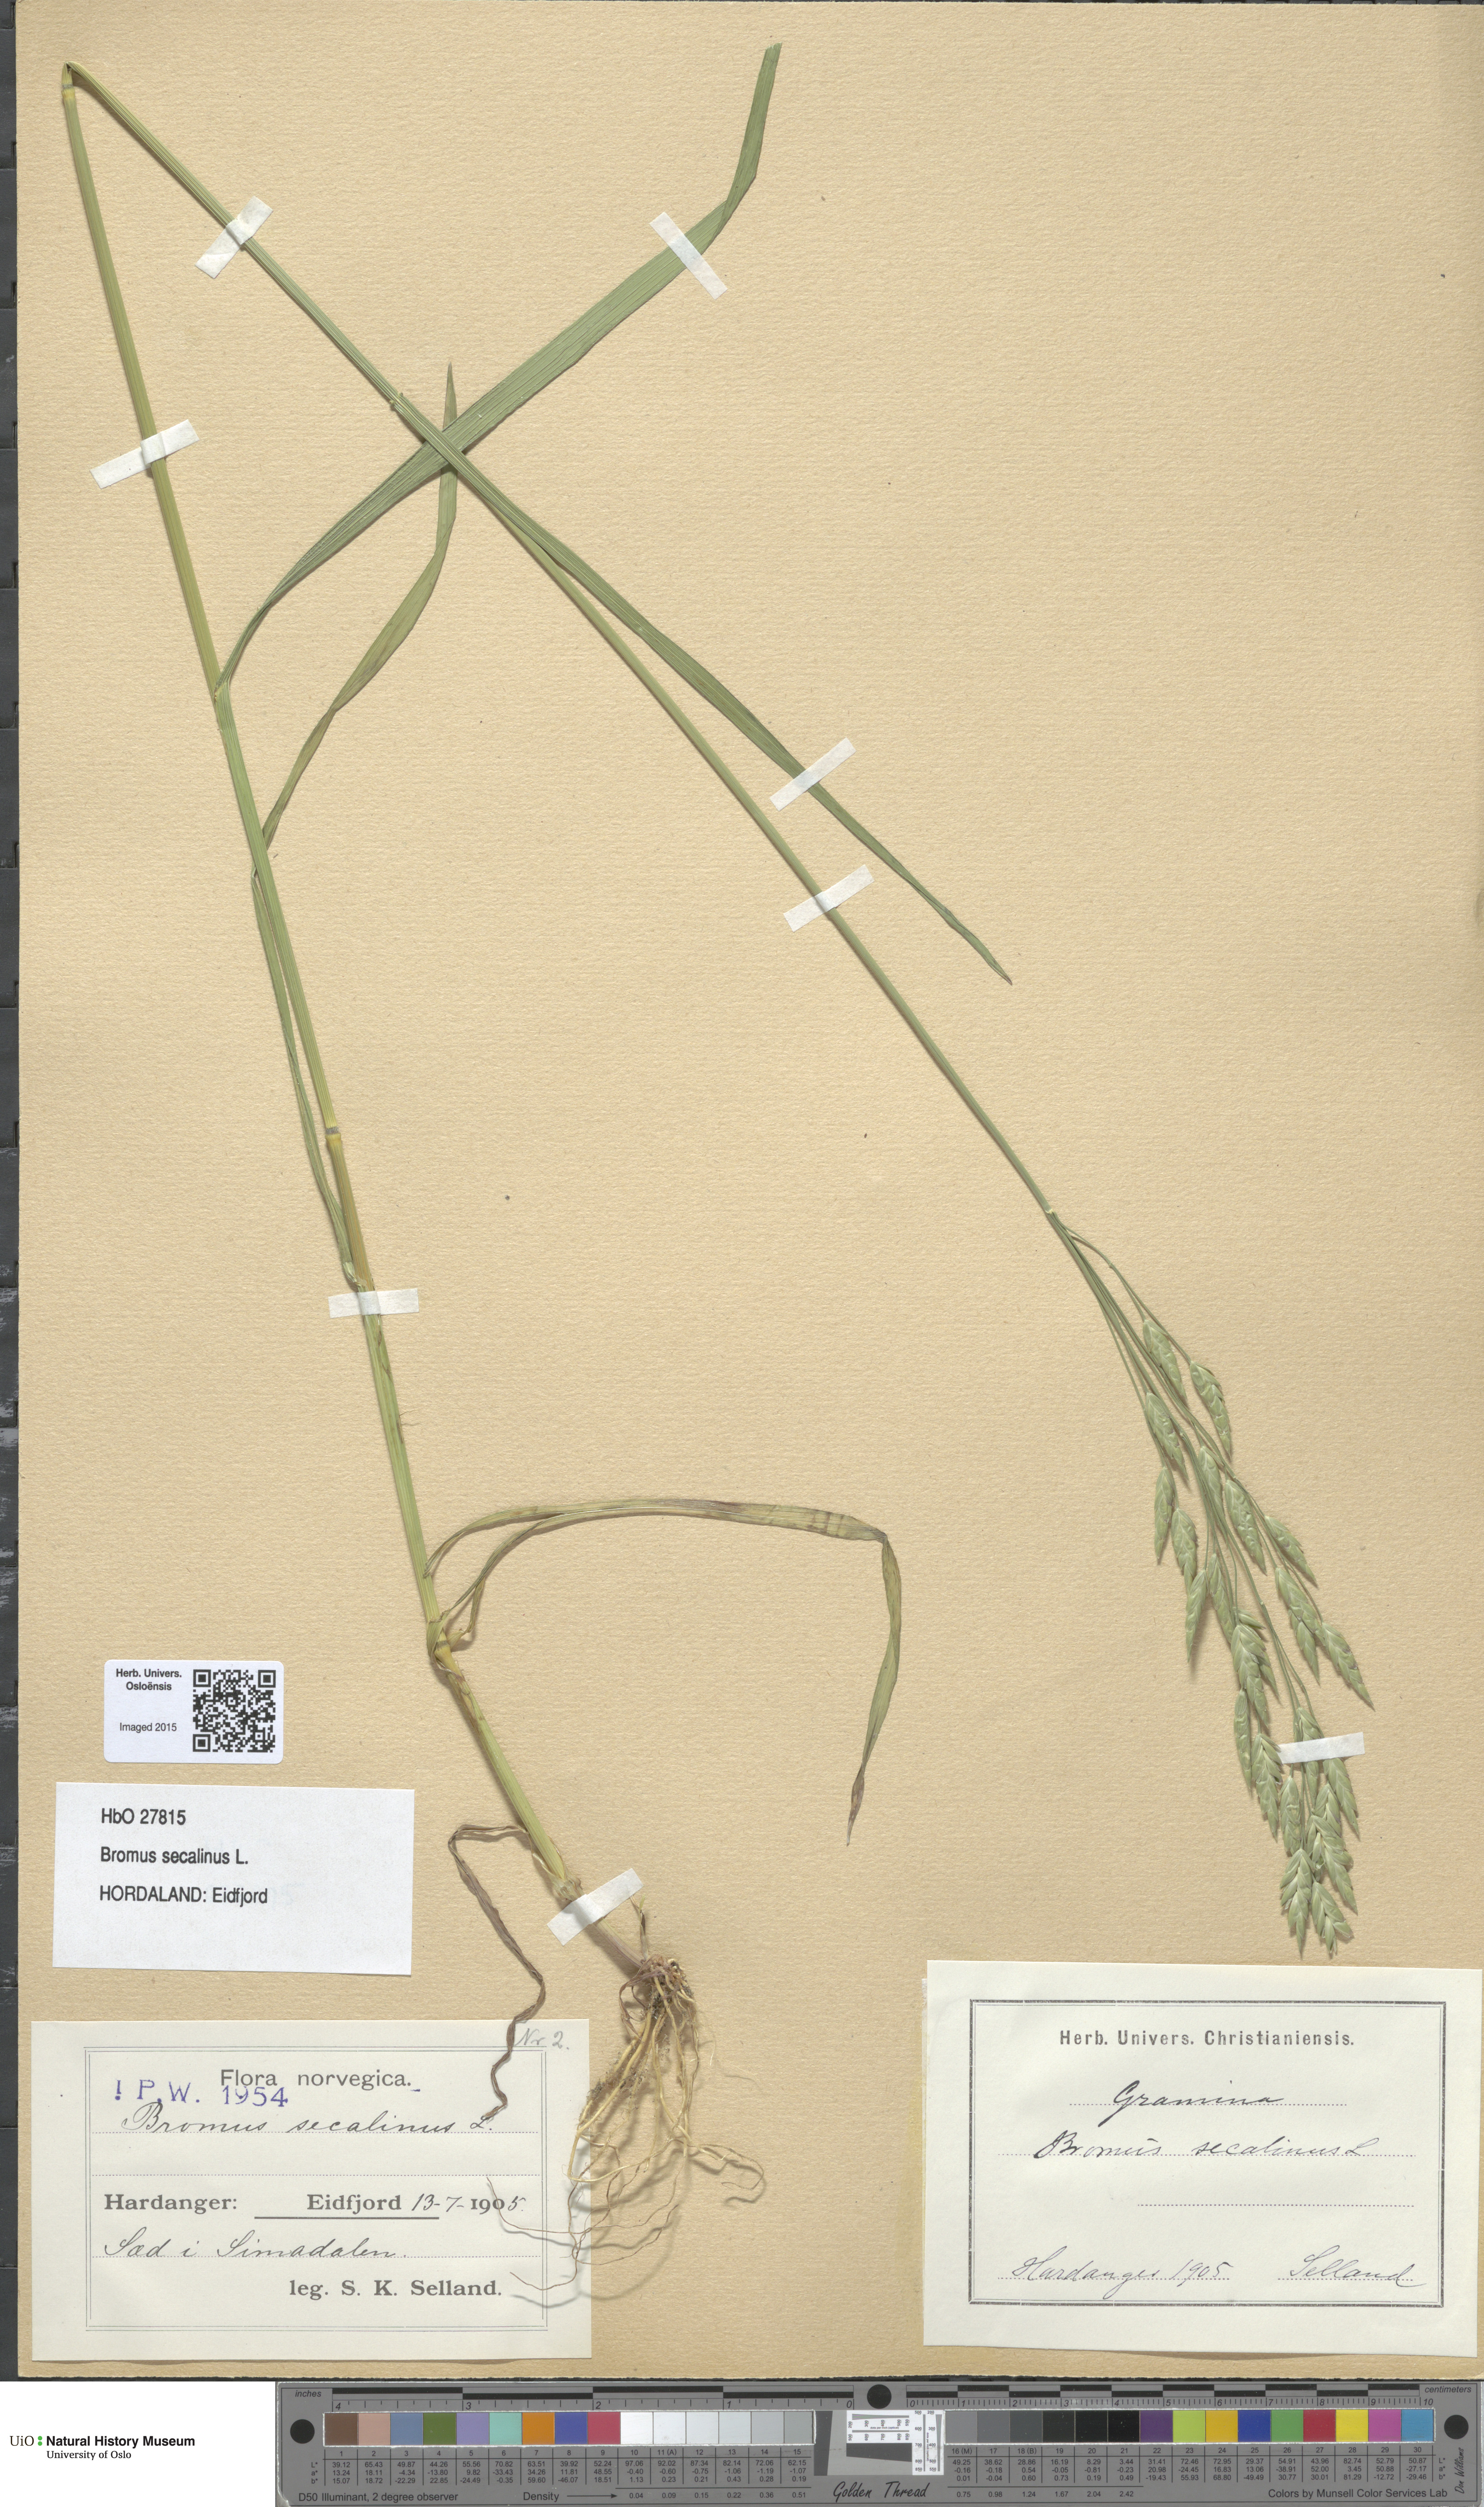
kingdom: Plantae
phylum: Tracheophyta
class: Liliopsida
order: Poales
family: Poaceae
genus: Bromus
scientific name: Bromus secalinus
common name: Rye brome
